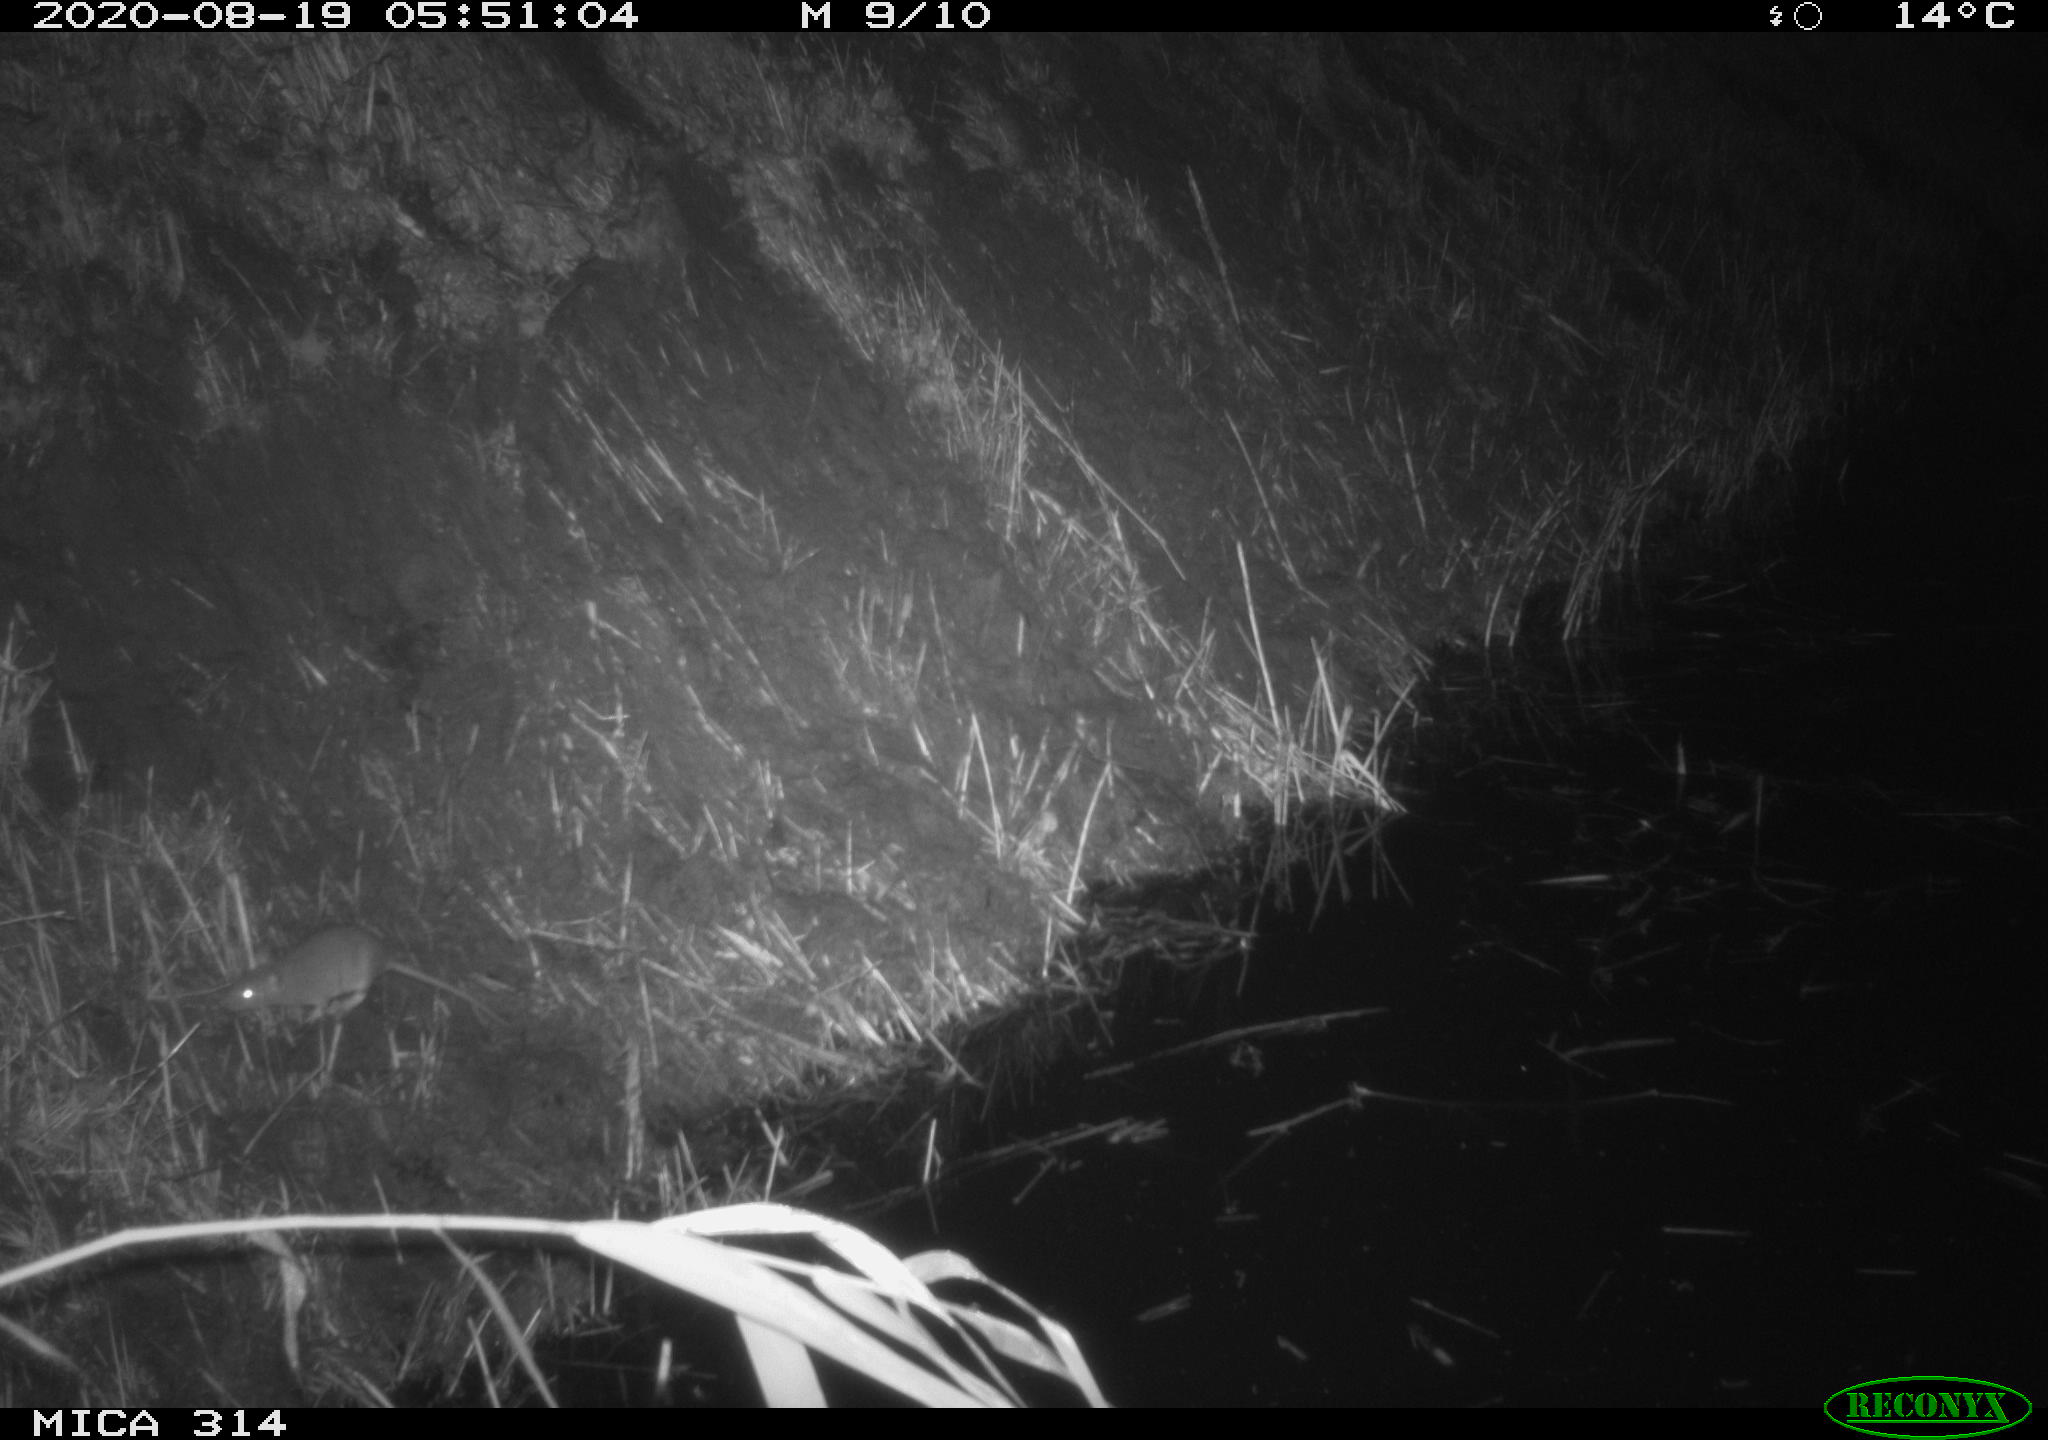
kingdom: Animalia
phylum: Chordata
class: Mammalia
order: Rodentia
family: Muridae
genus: Rattus
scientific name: Rattus norvegicus
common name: Brown rat
